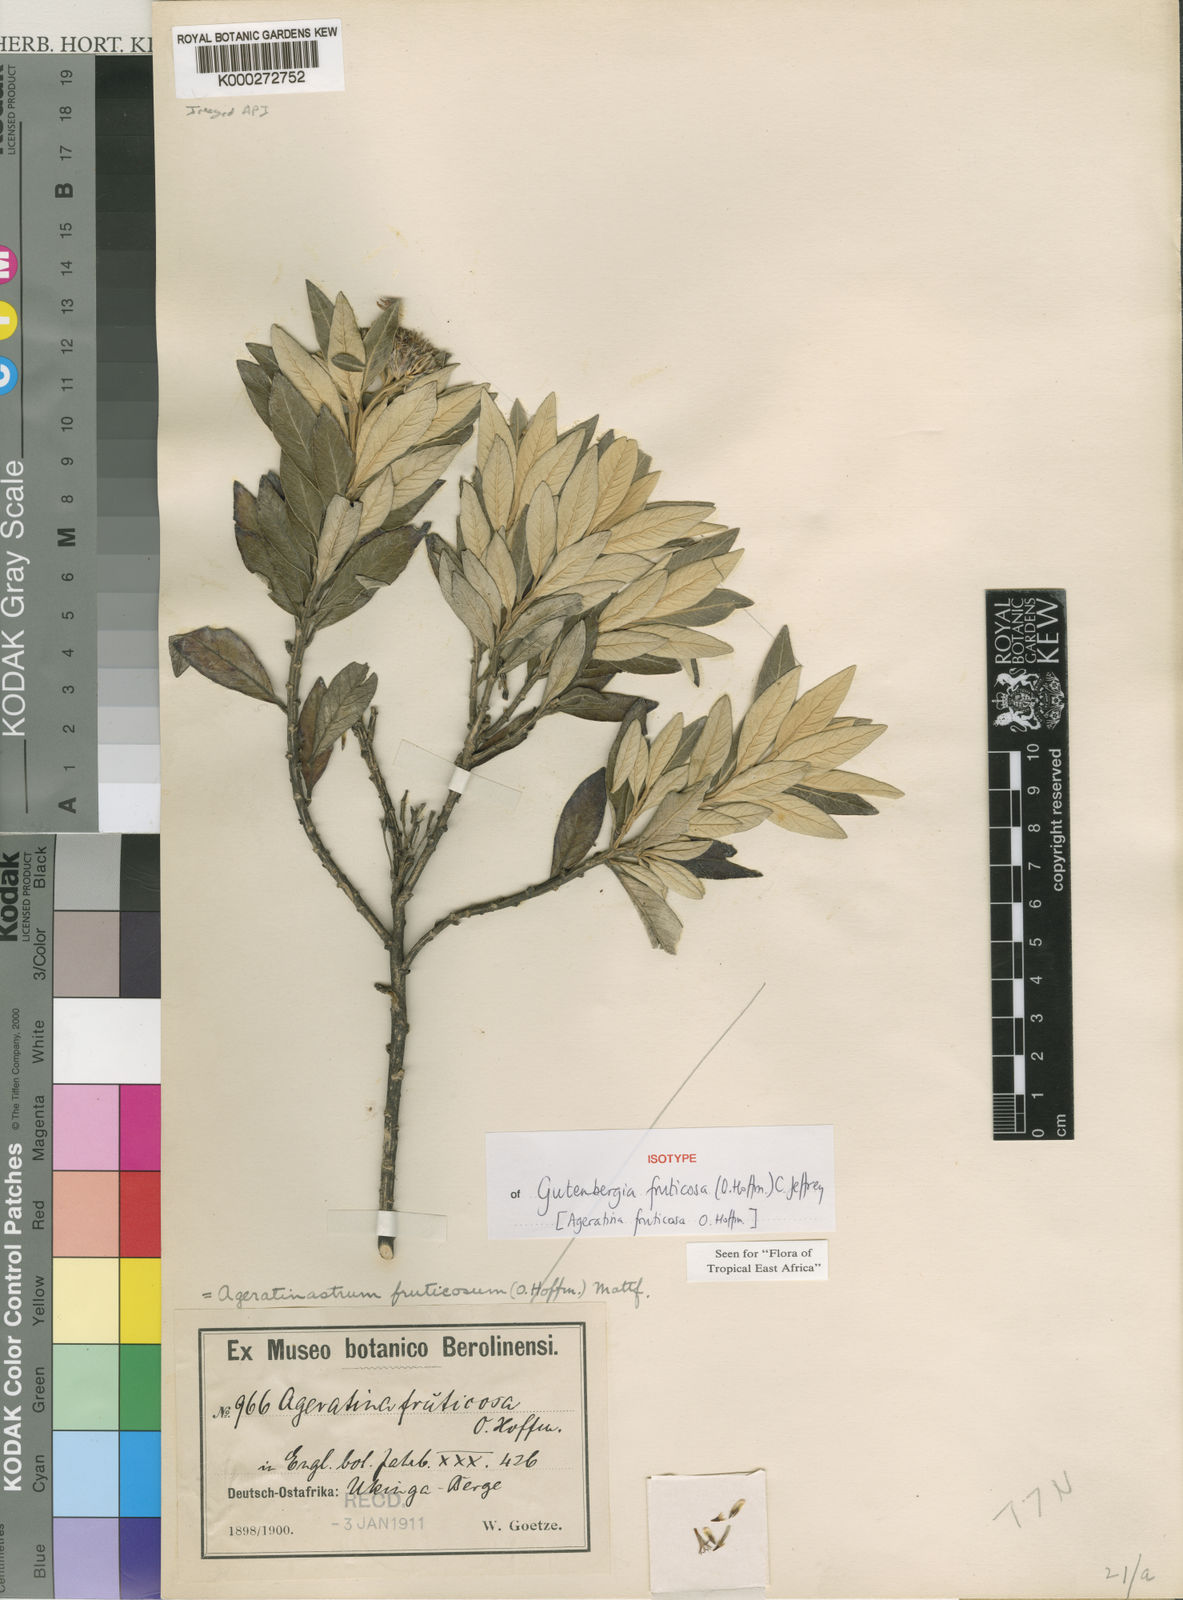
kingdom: Plantae
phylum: Tracheophyta
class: Magnoliopsida
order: Asterales
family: Asteraceae
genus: Gutenbergia
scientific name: Gutenbergia fruticosa
